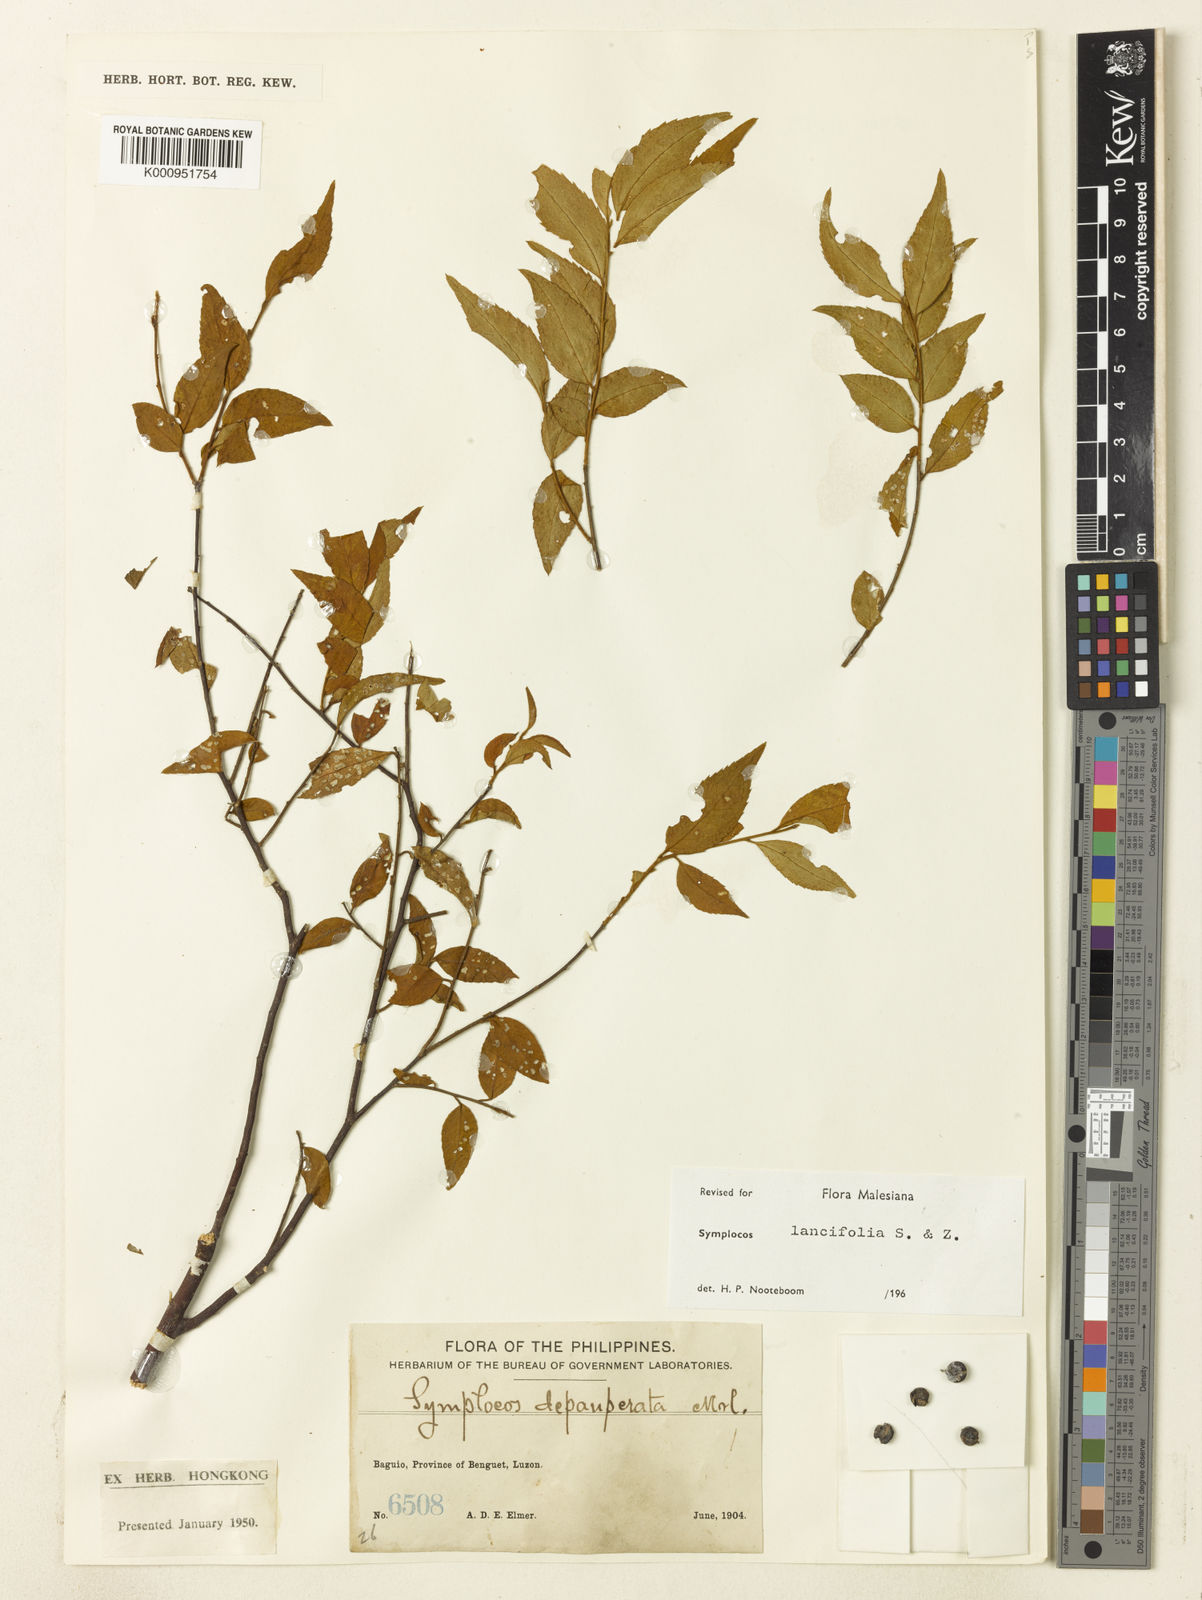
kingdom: Plantae
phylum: Tracheophyta
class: Magnoliopsida
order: Ericales
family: Symplocaceae
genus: Symplocos
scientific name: Symplocos lancifolia
